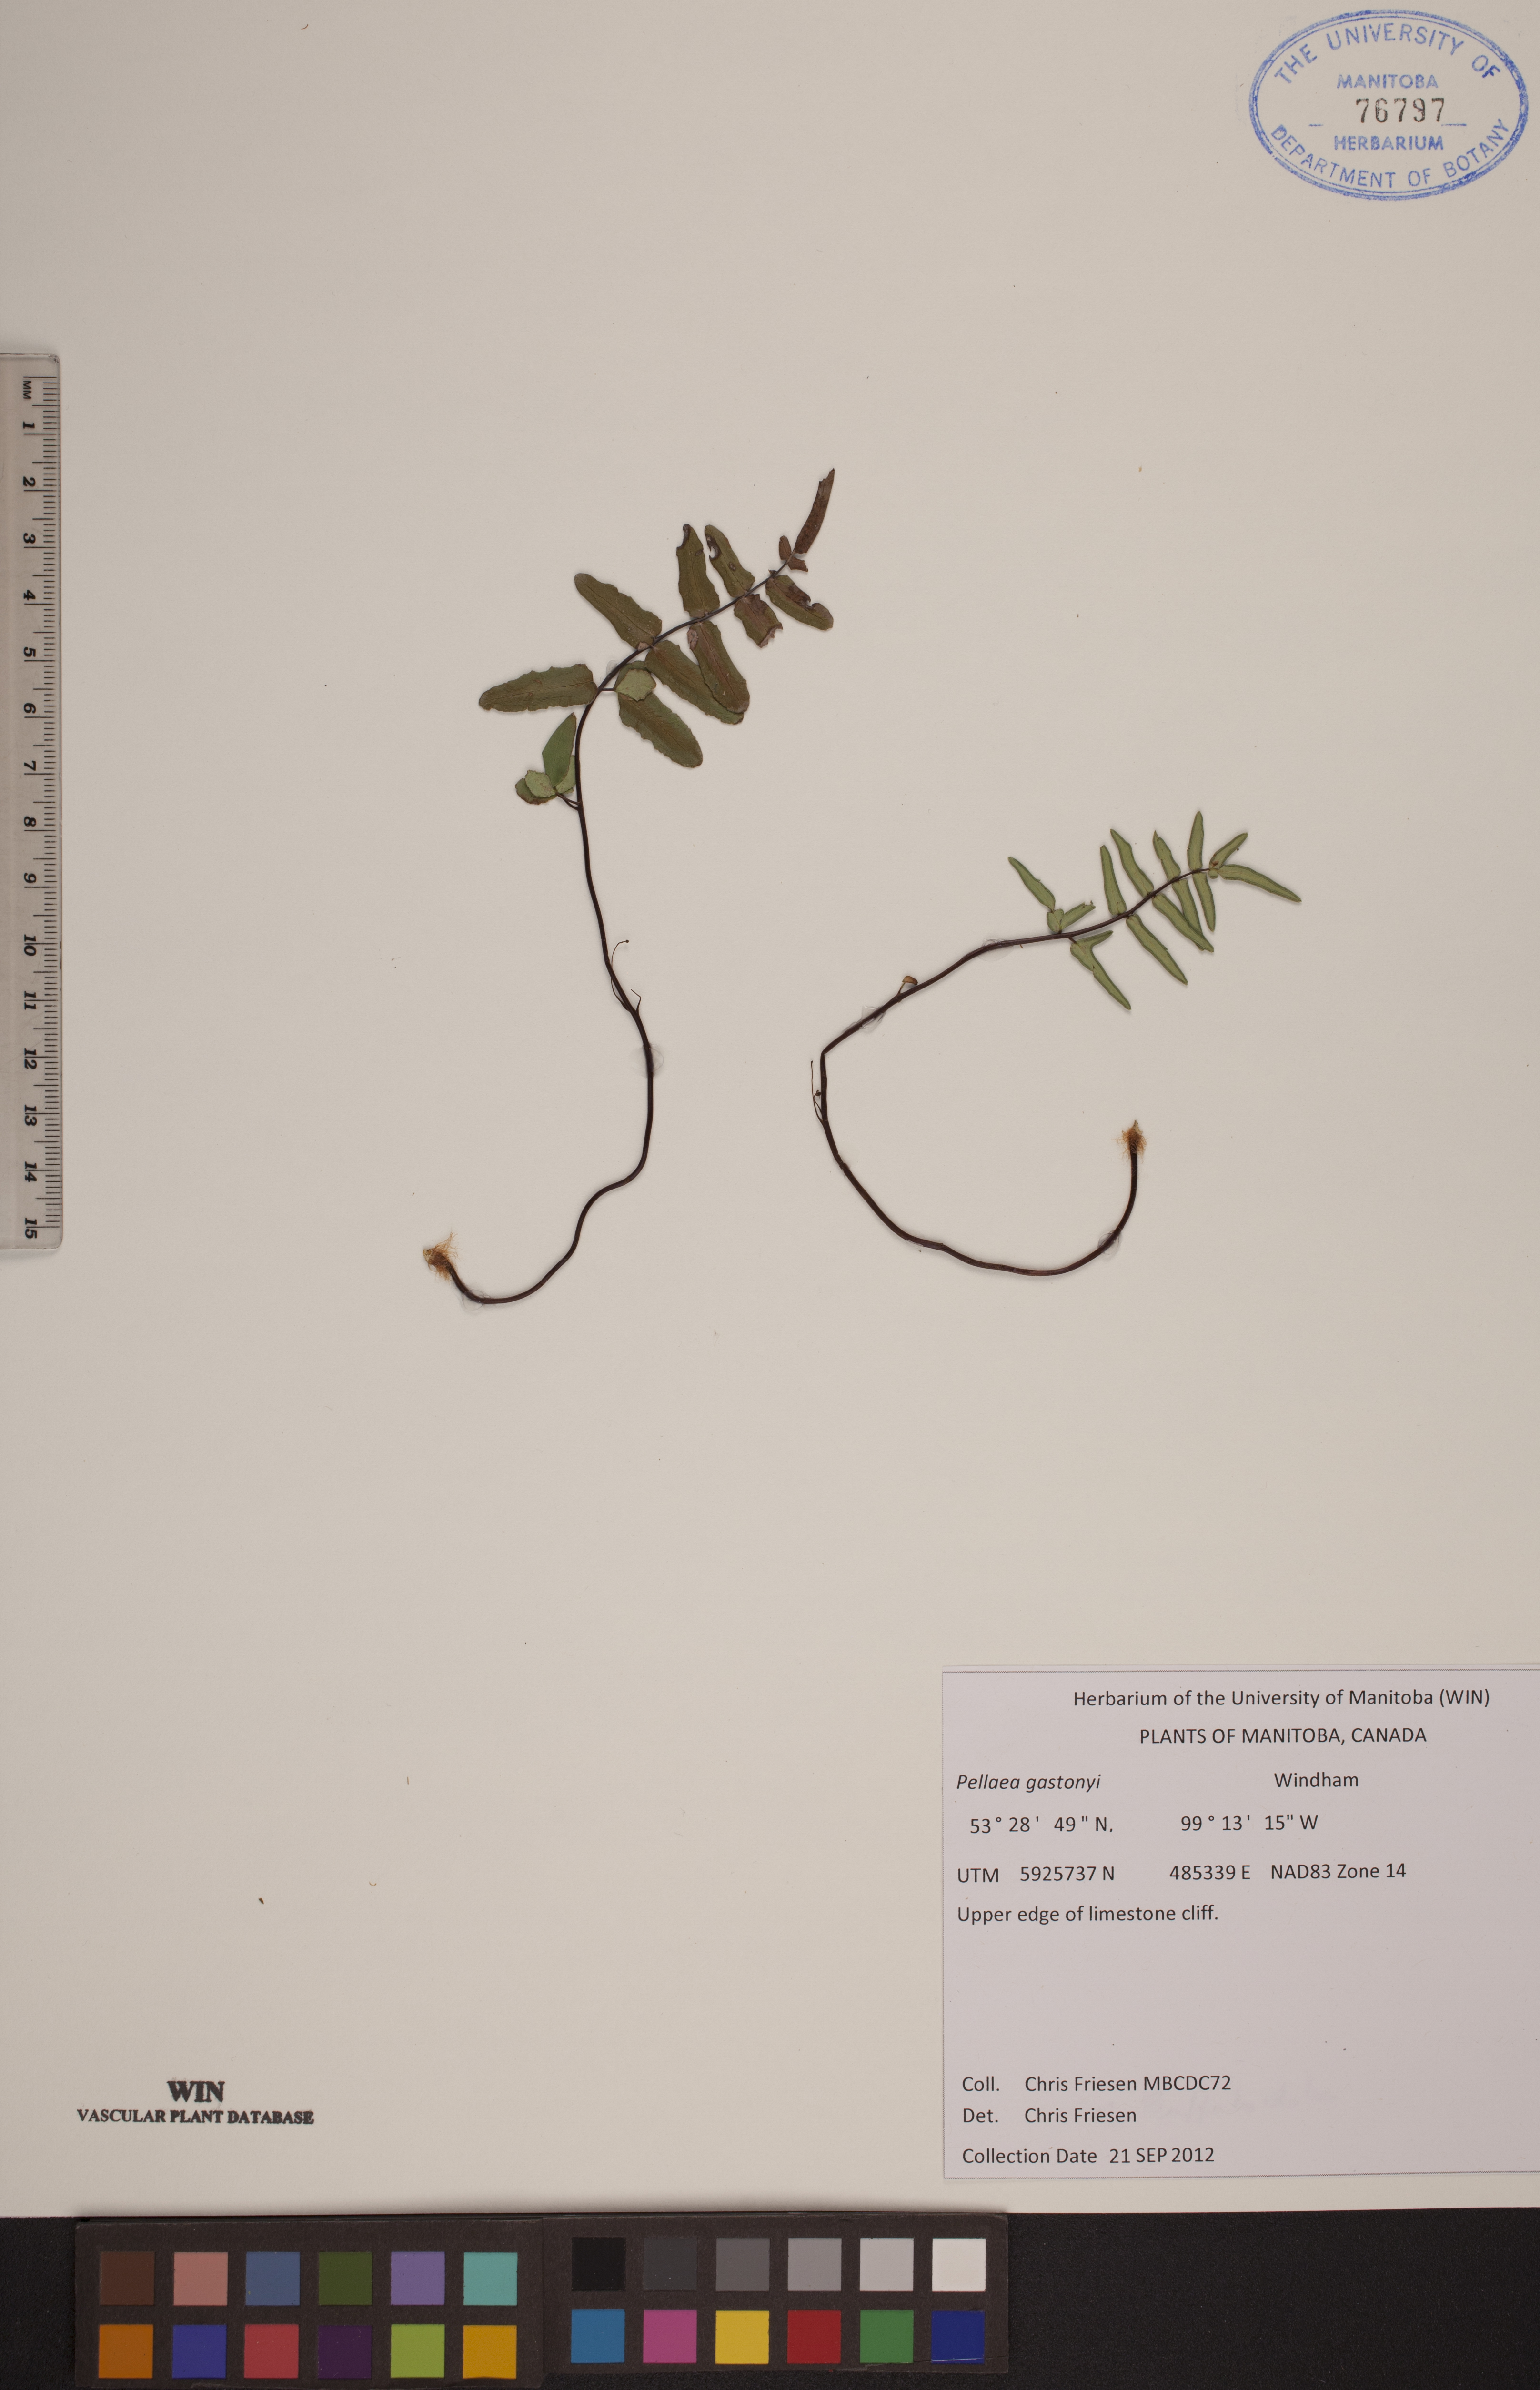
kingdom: Plantae
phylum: Tracheophyta
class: Polypodiopsida
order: Polypodiales
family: Pteridaceae
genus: Pellaea
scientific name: Pellaea gastonyi
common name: Gastony's cliffbrake
